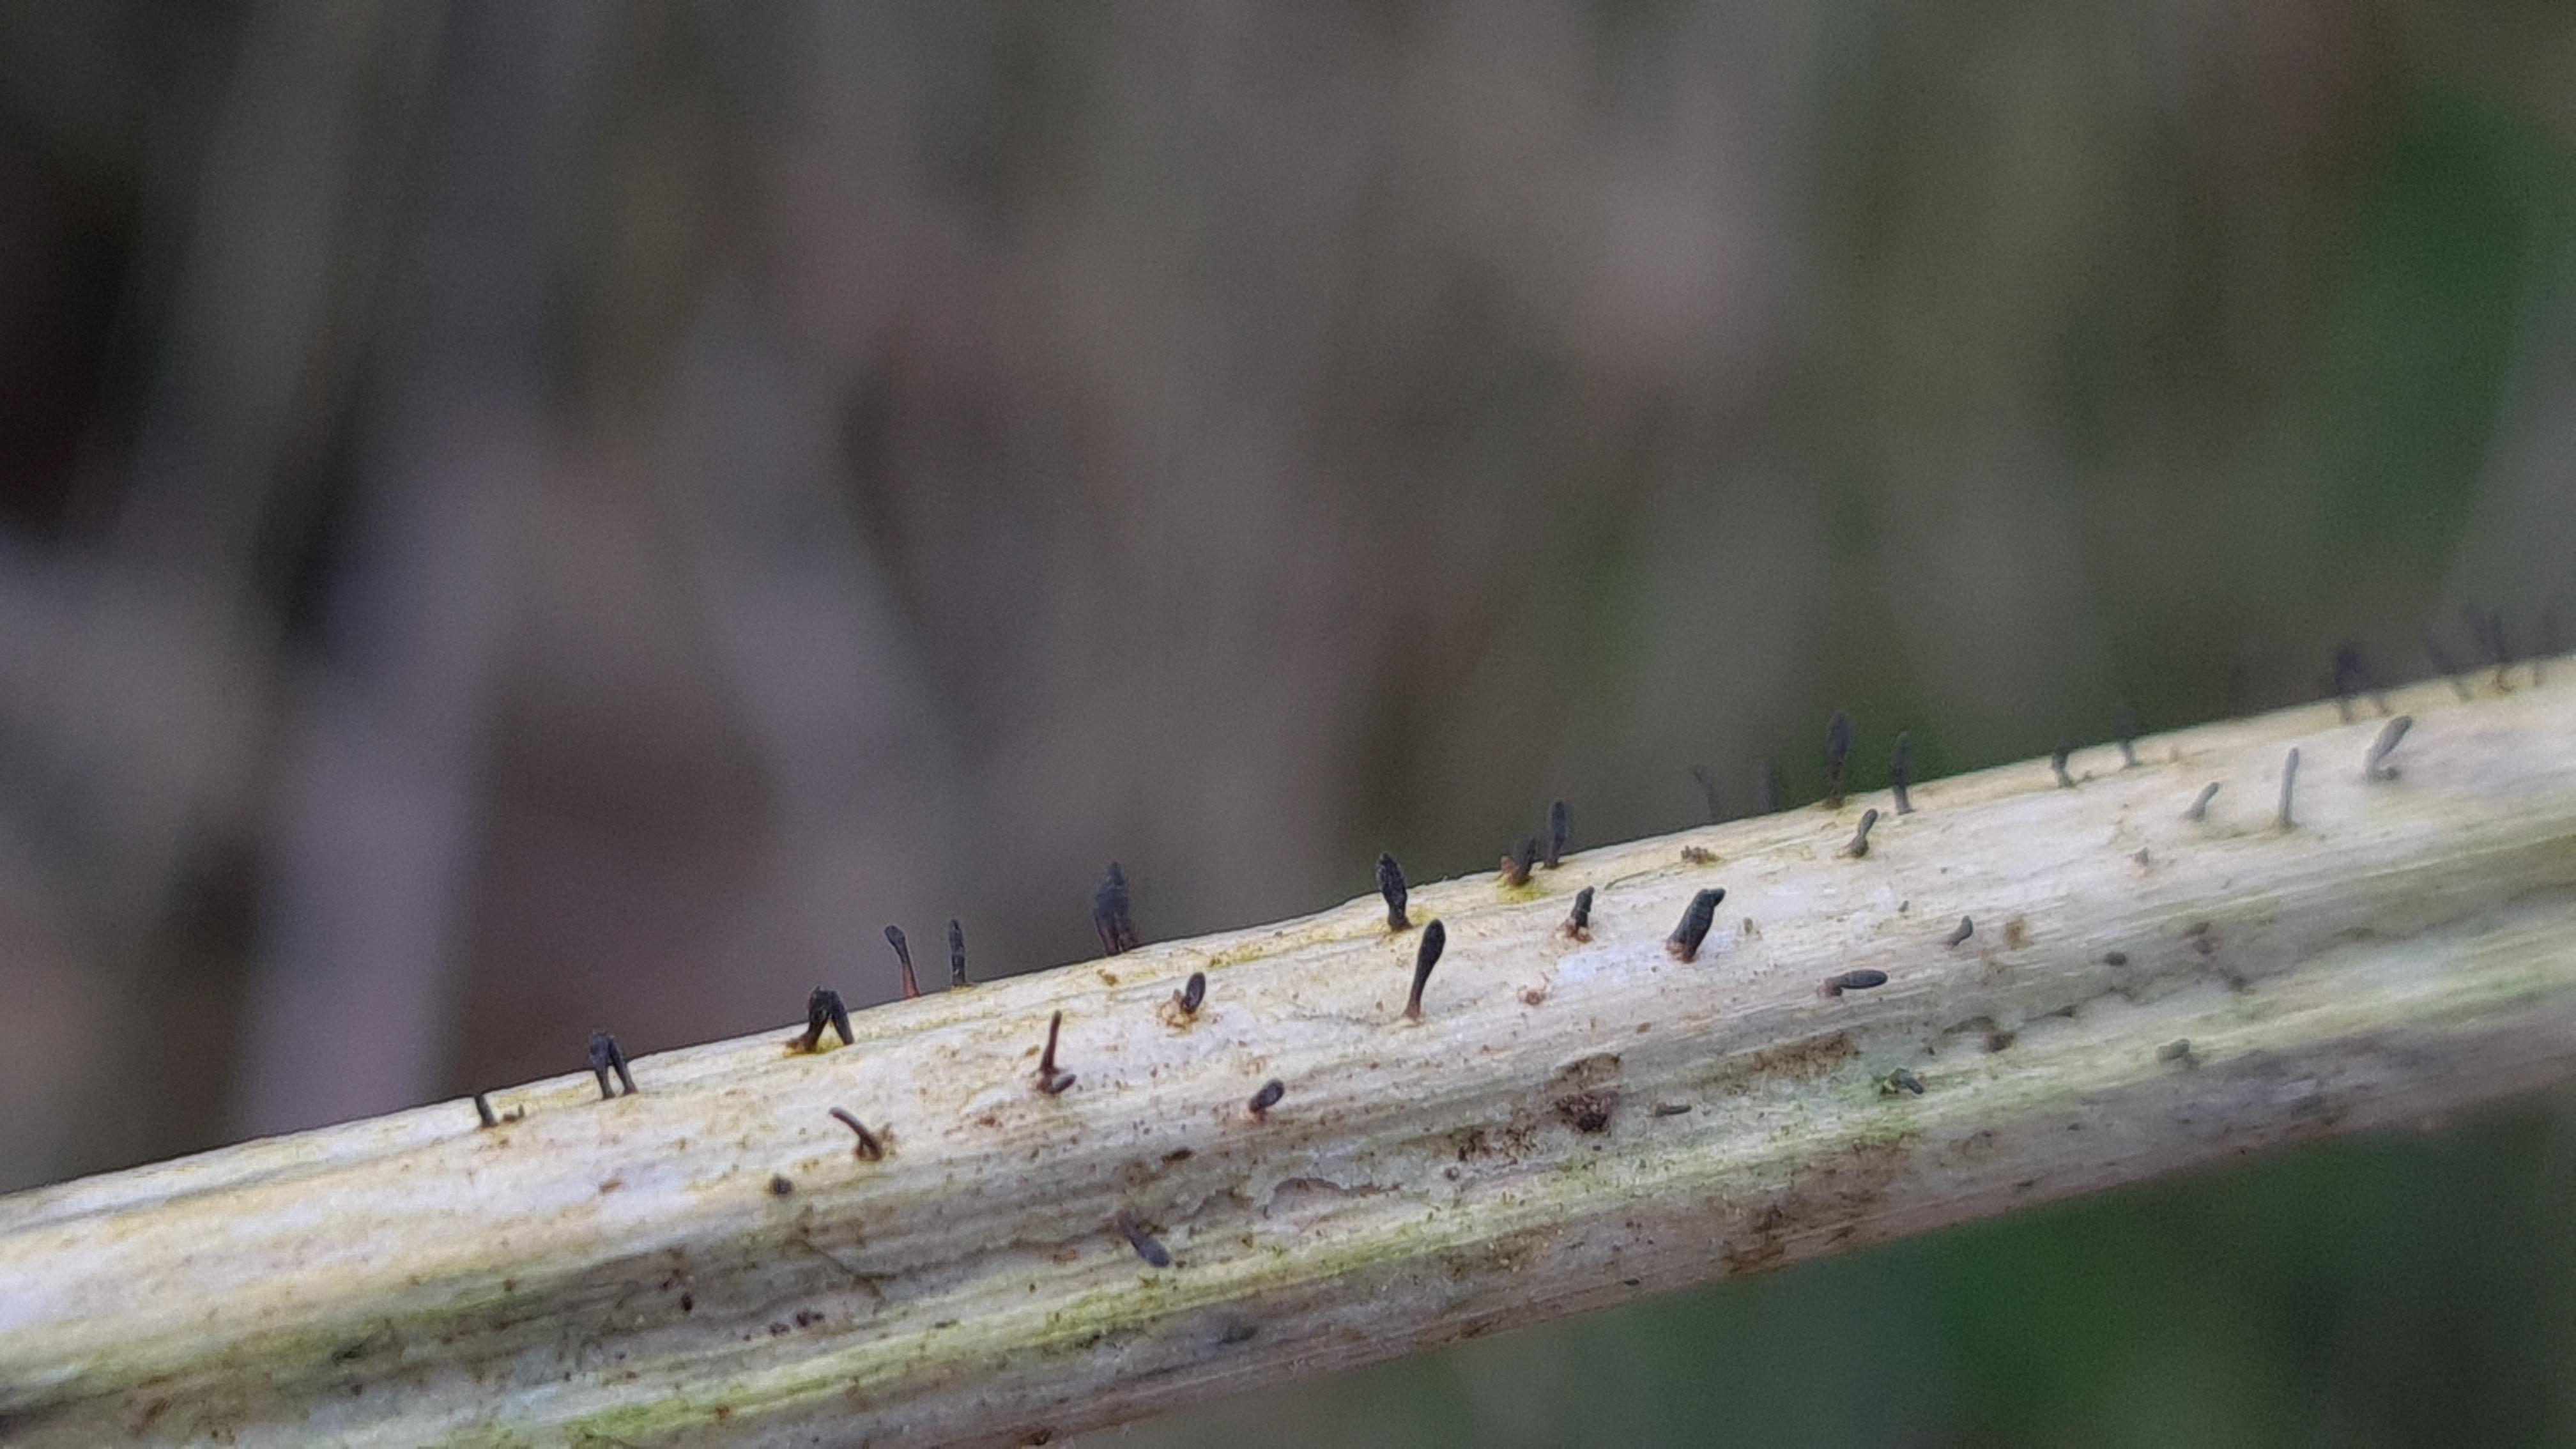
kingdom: Fungi
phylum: Ascomycota
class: Dothideomycetes
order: Acrospermales
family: Acrospermaceae
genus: Acrospermum
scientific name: Acrospermum compressum
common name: nælde-stængeltunge
